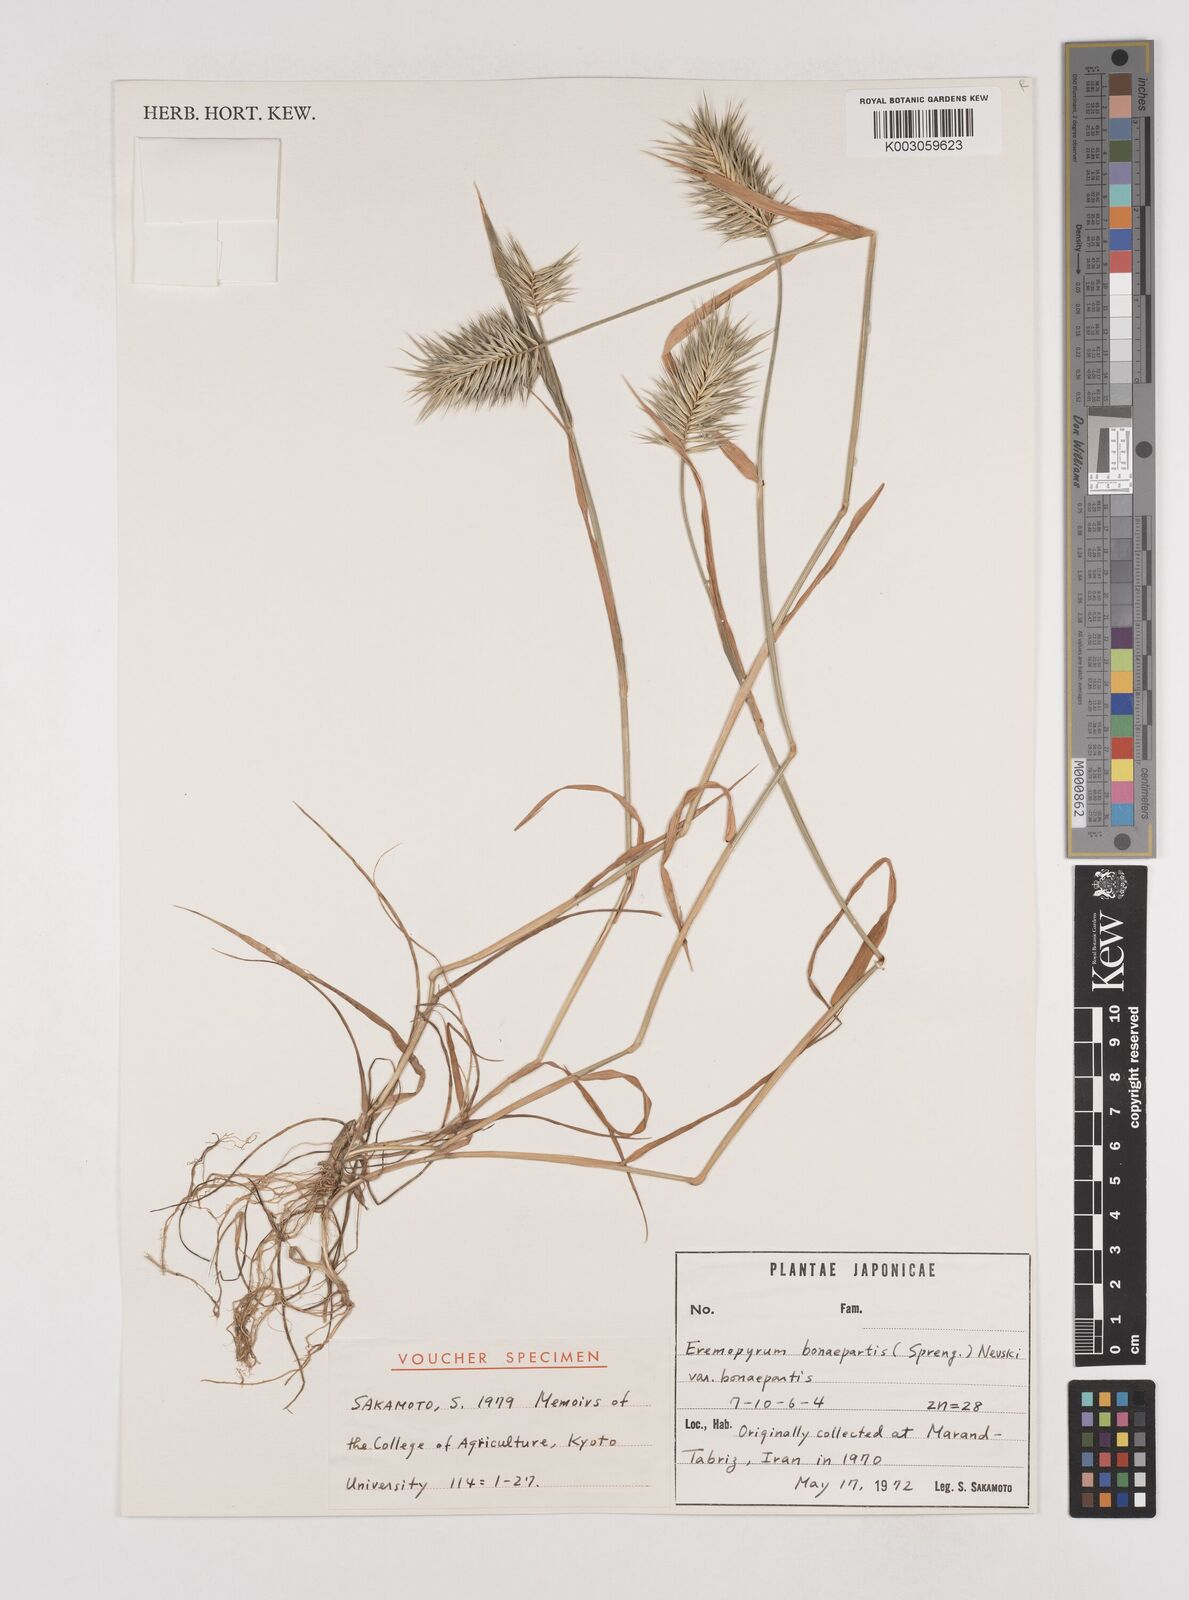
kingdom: Plantae
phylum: Tracheophyta
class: Liliopsida
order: Poales
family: Poaceae
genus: Eremopyrum
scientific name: Eremopyrum bonaepartis
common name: Tapertip false wheatgrass
